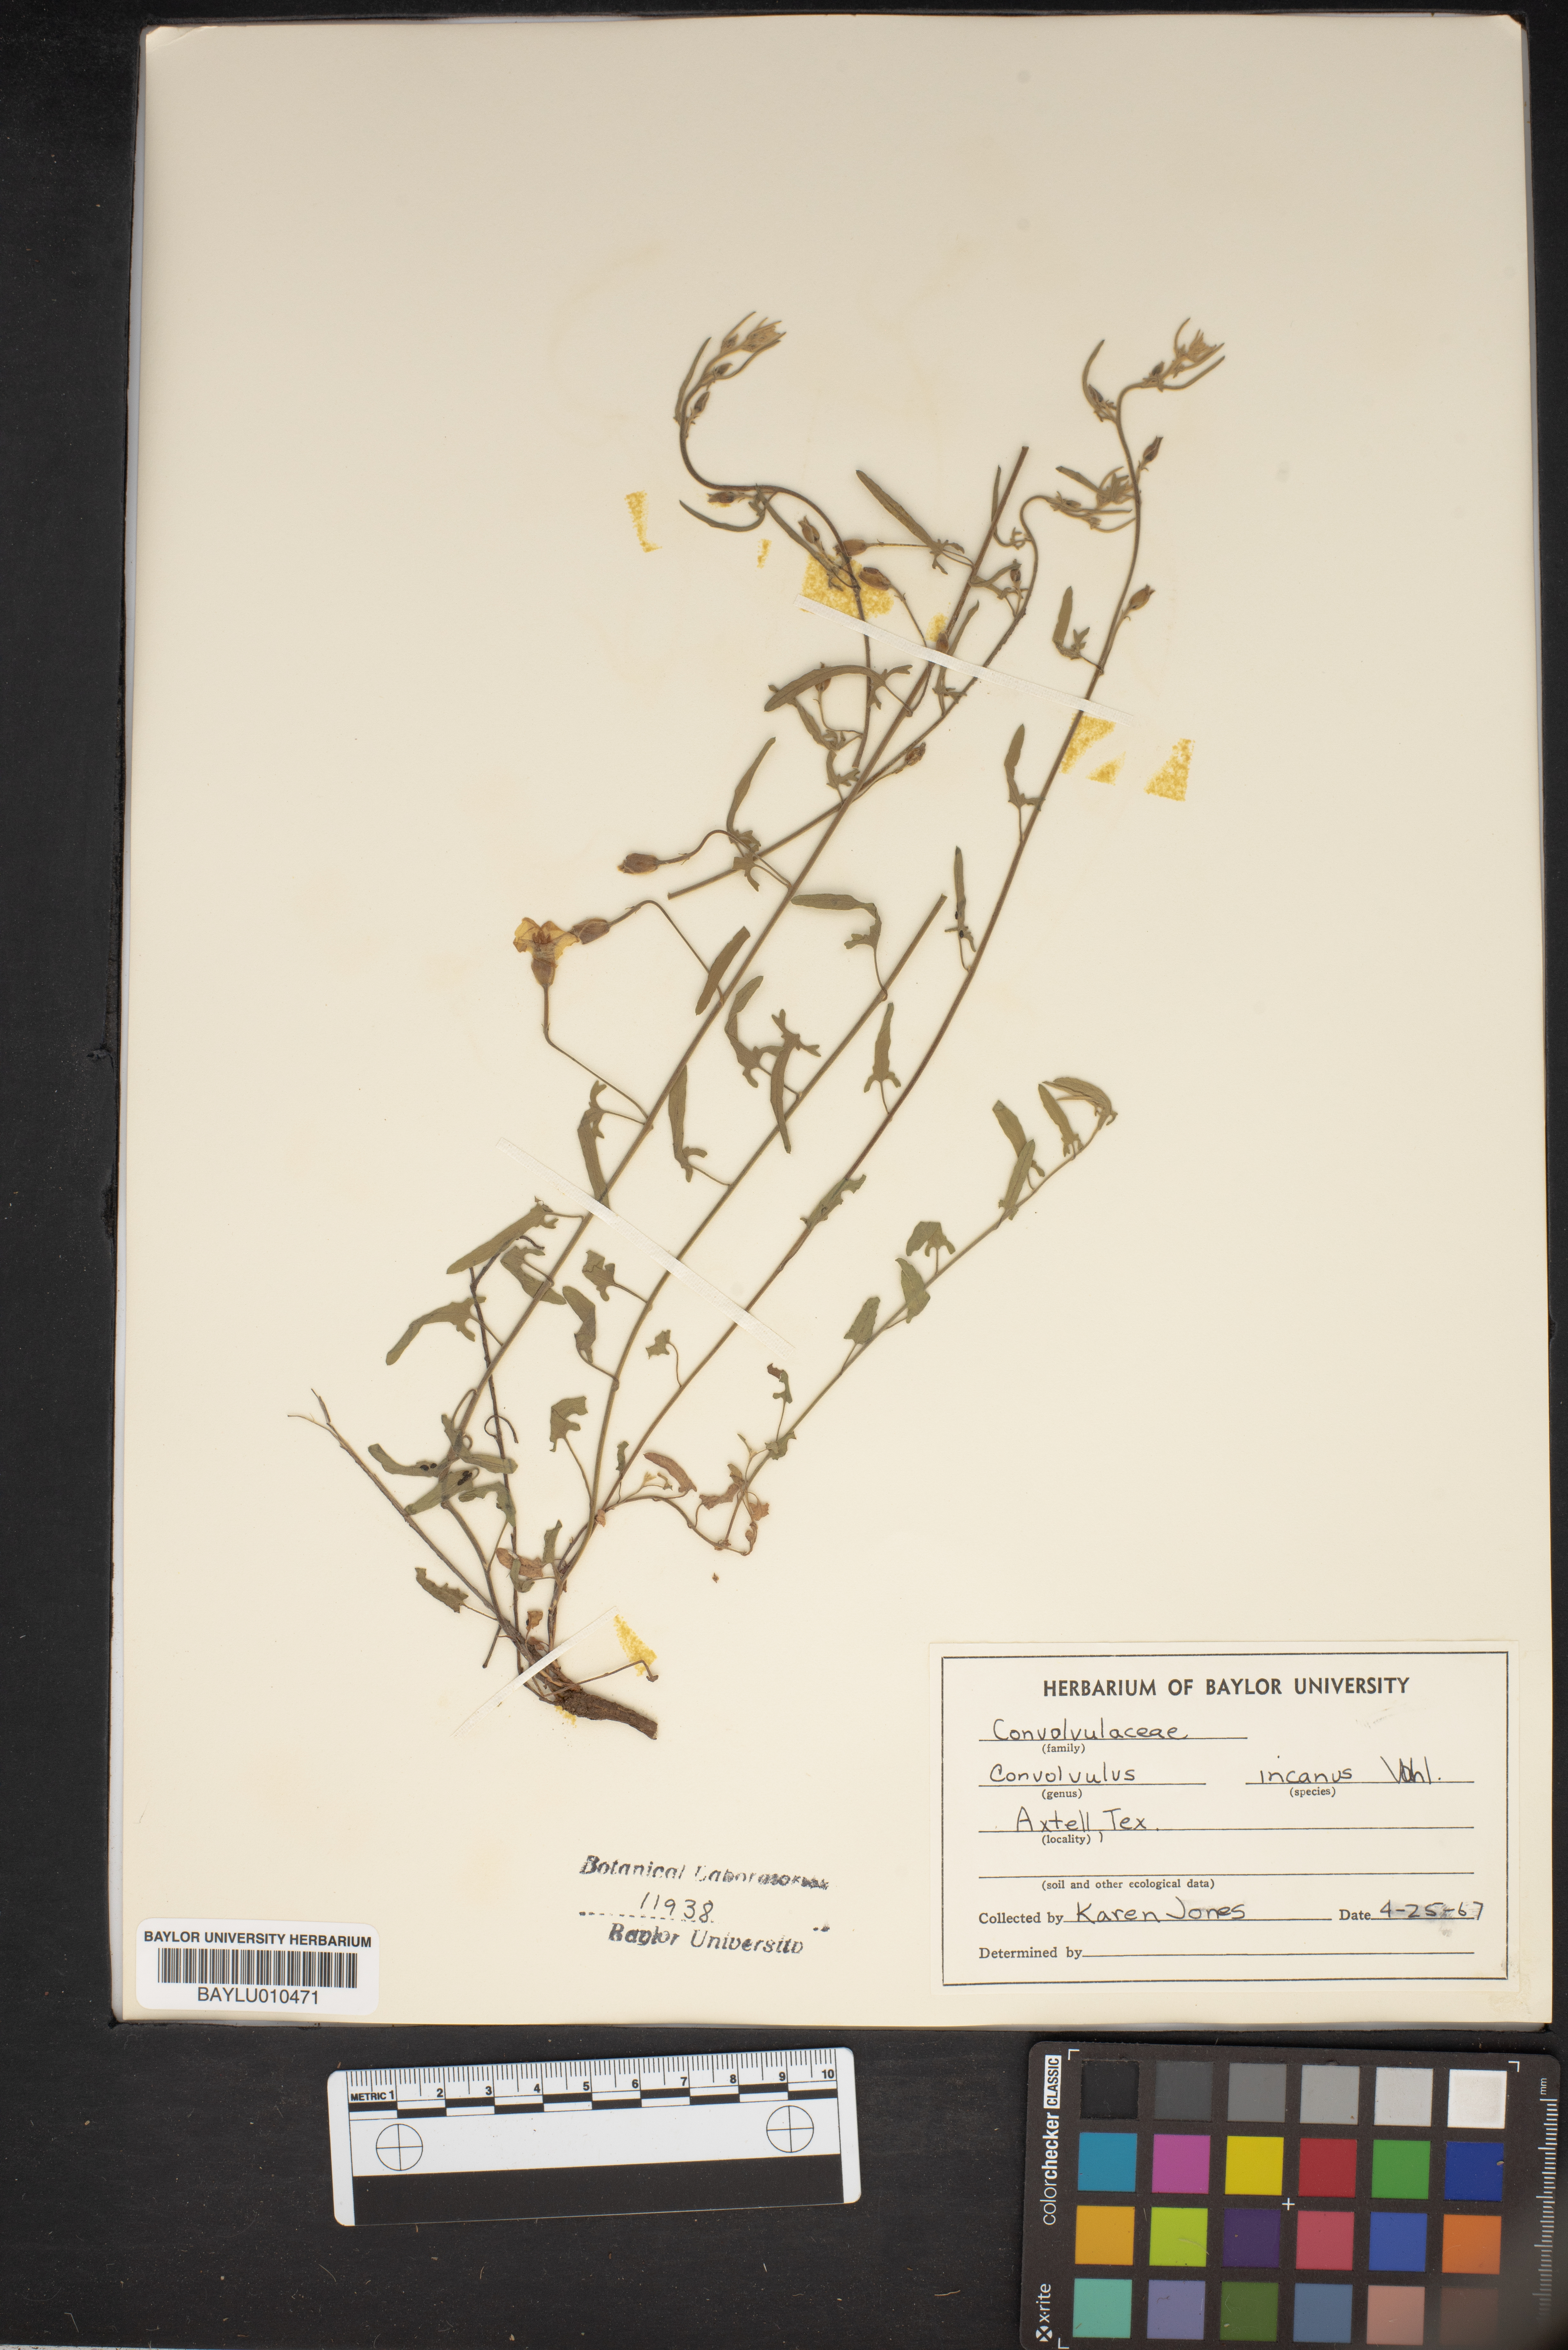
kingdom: Plantae
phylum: Tracheophyta
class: Magnoliopsida
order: Solanales
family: Convolvulaceae
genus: Convolvulus
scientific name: Convolvulus hermanniae
